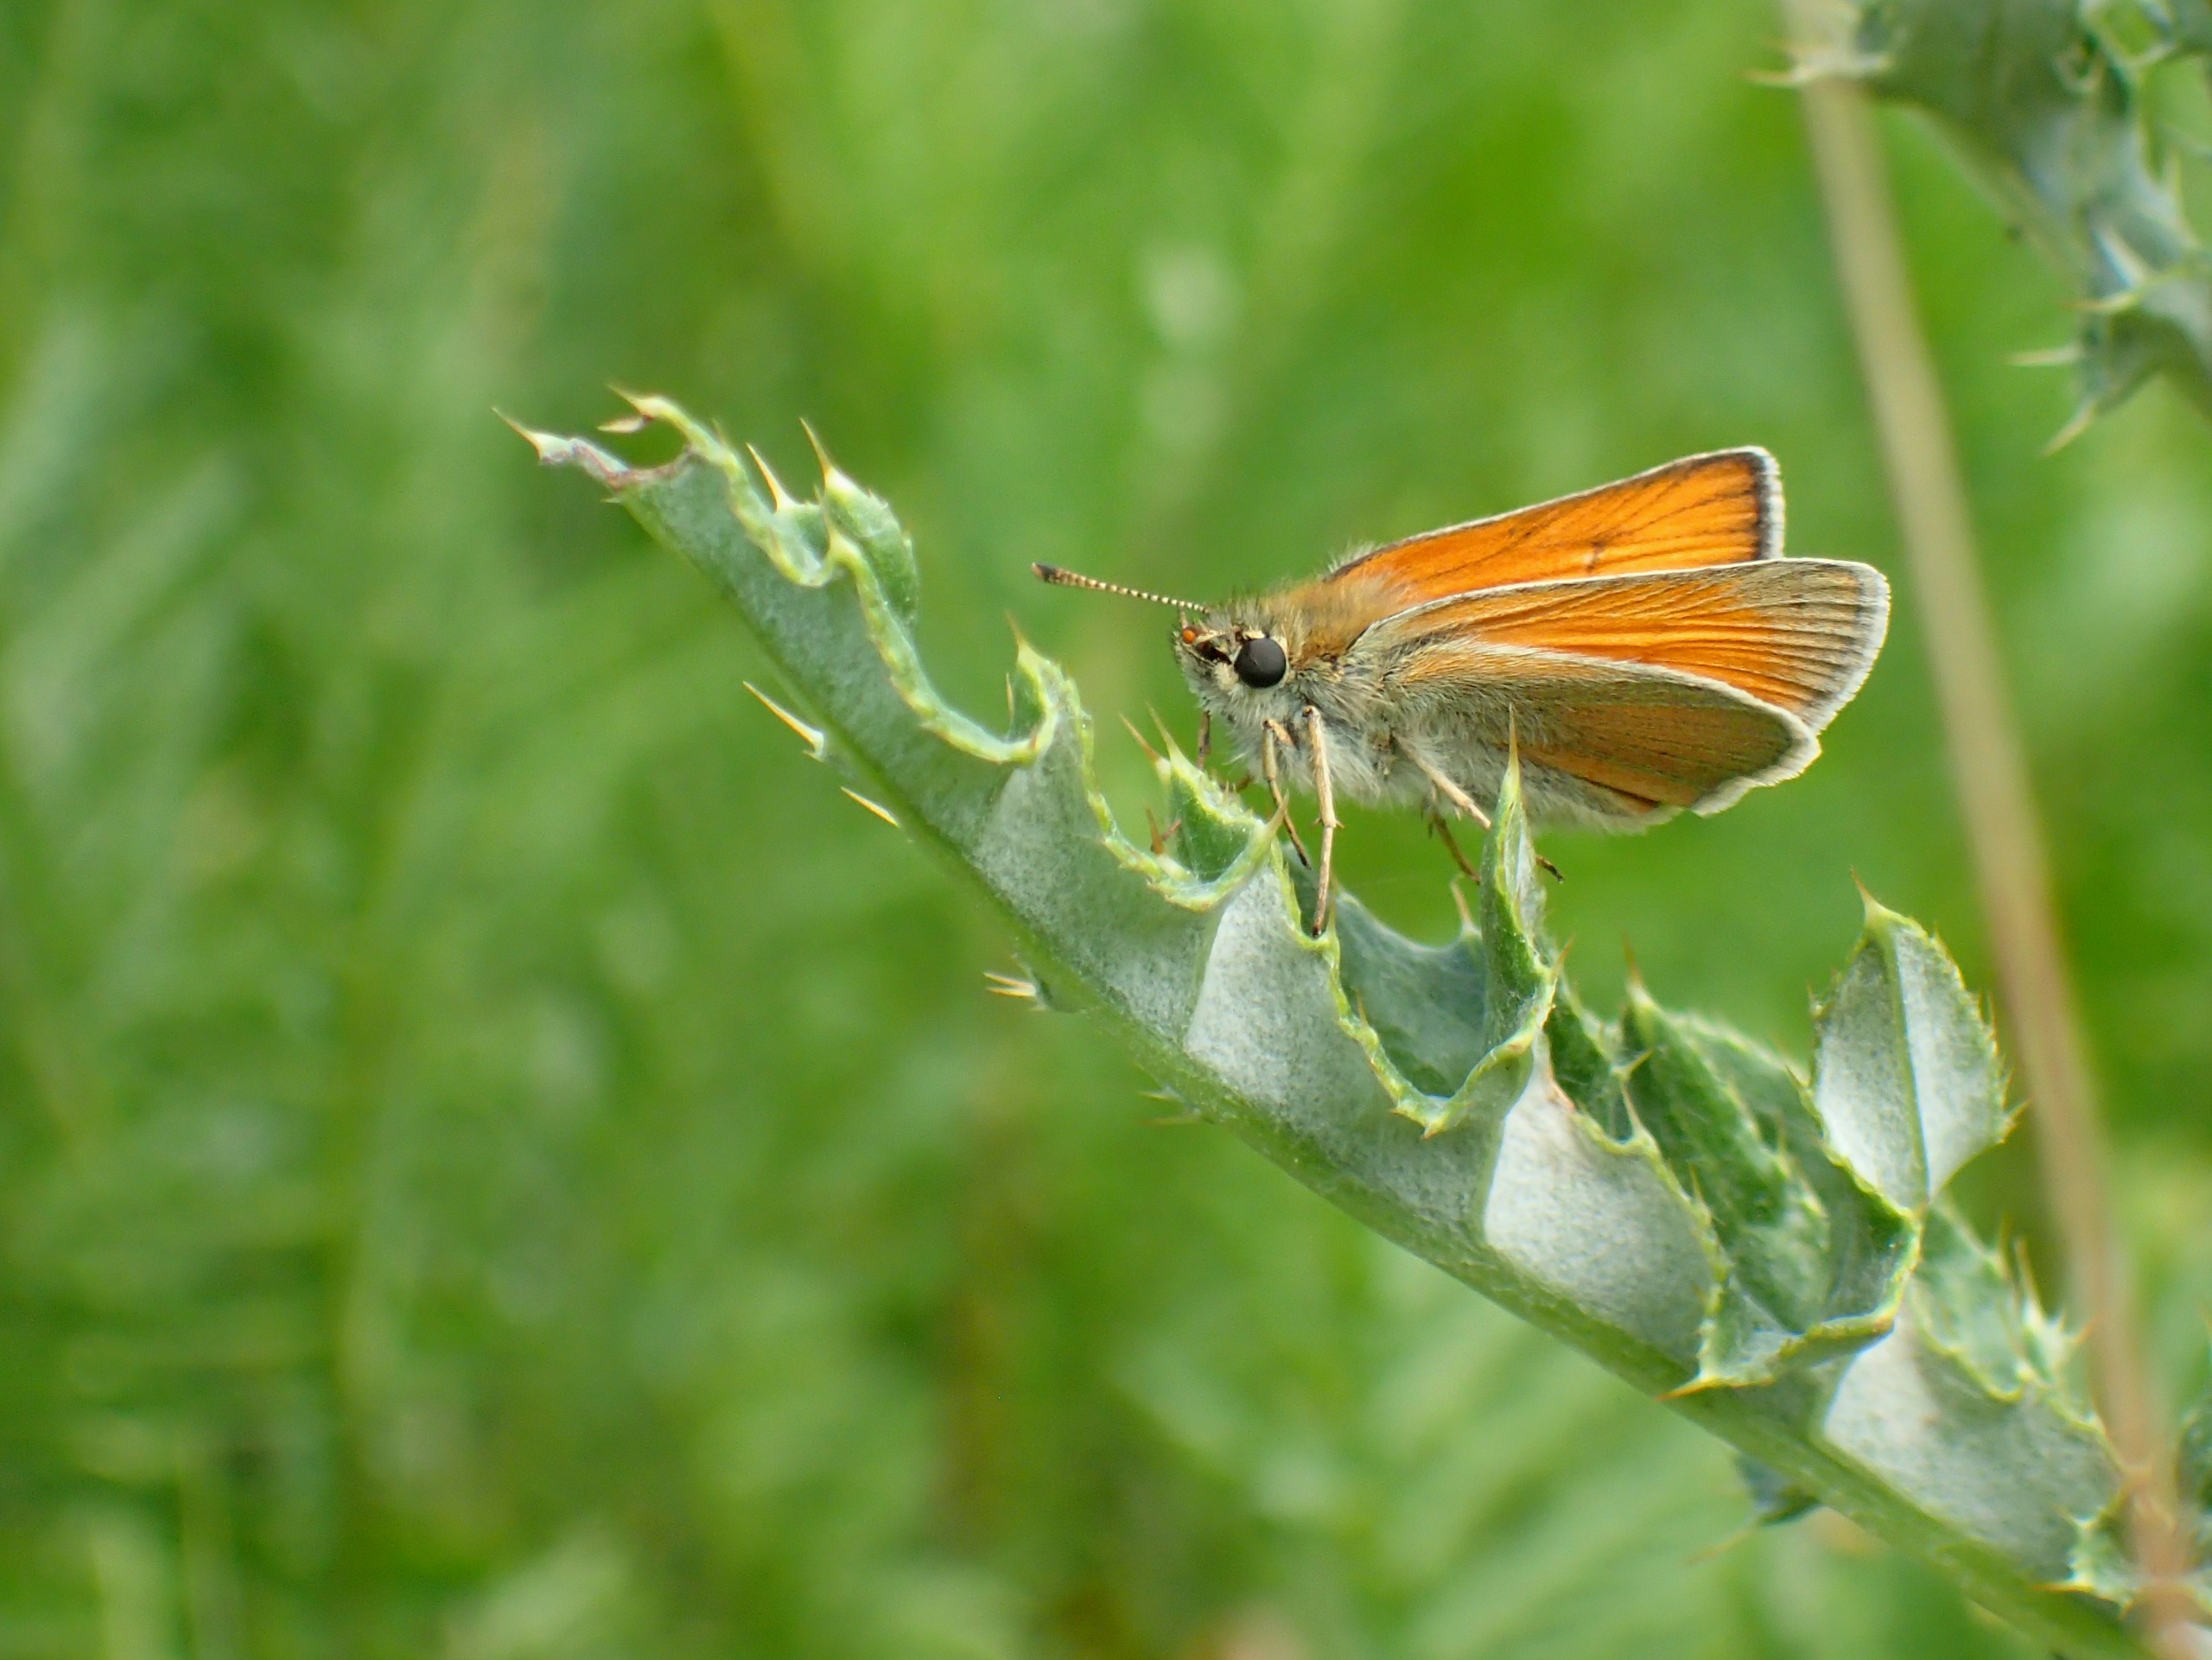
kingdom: Animalia
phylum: Arthropoda
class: Insecta
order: Lepidoptera
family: Hesperiidae
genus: Thymelicus
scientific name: Thymelicus sylvestris
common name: Skråstregbredpande
